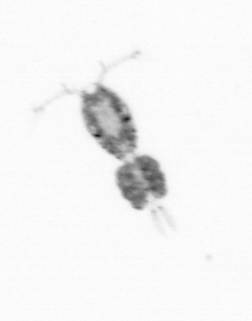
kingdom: Animalia
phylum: Arthropoda
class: Copepoda
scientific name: Copepoda
